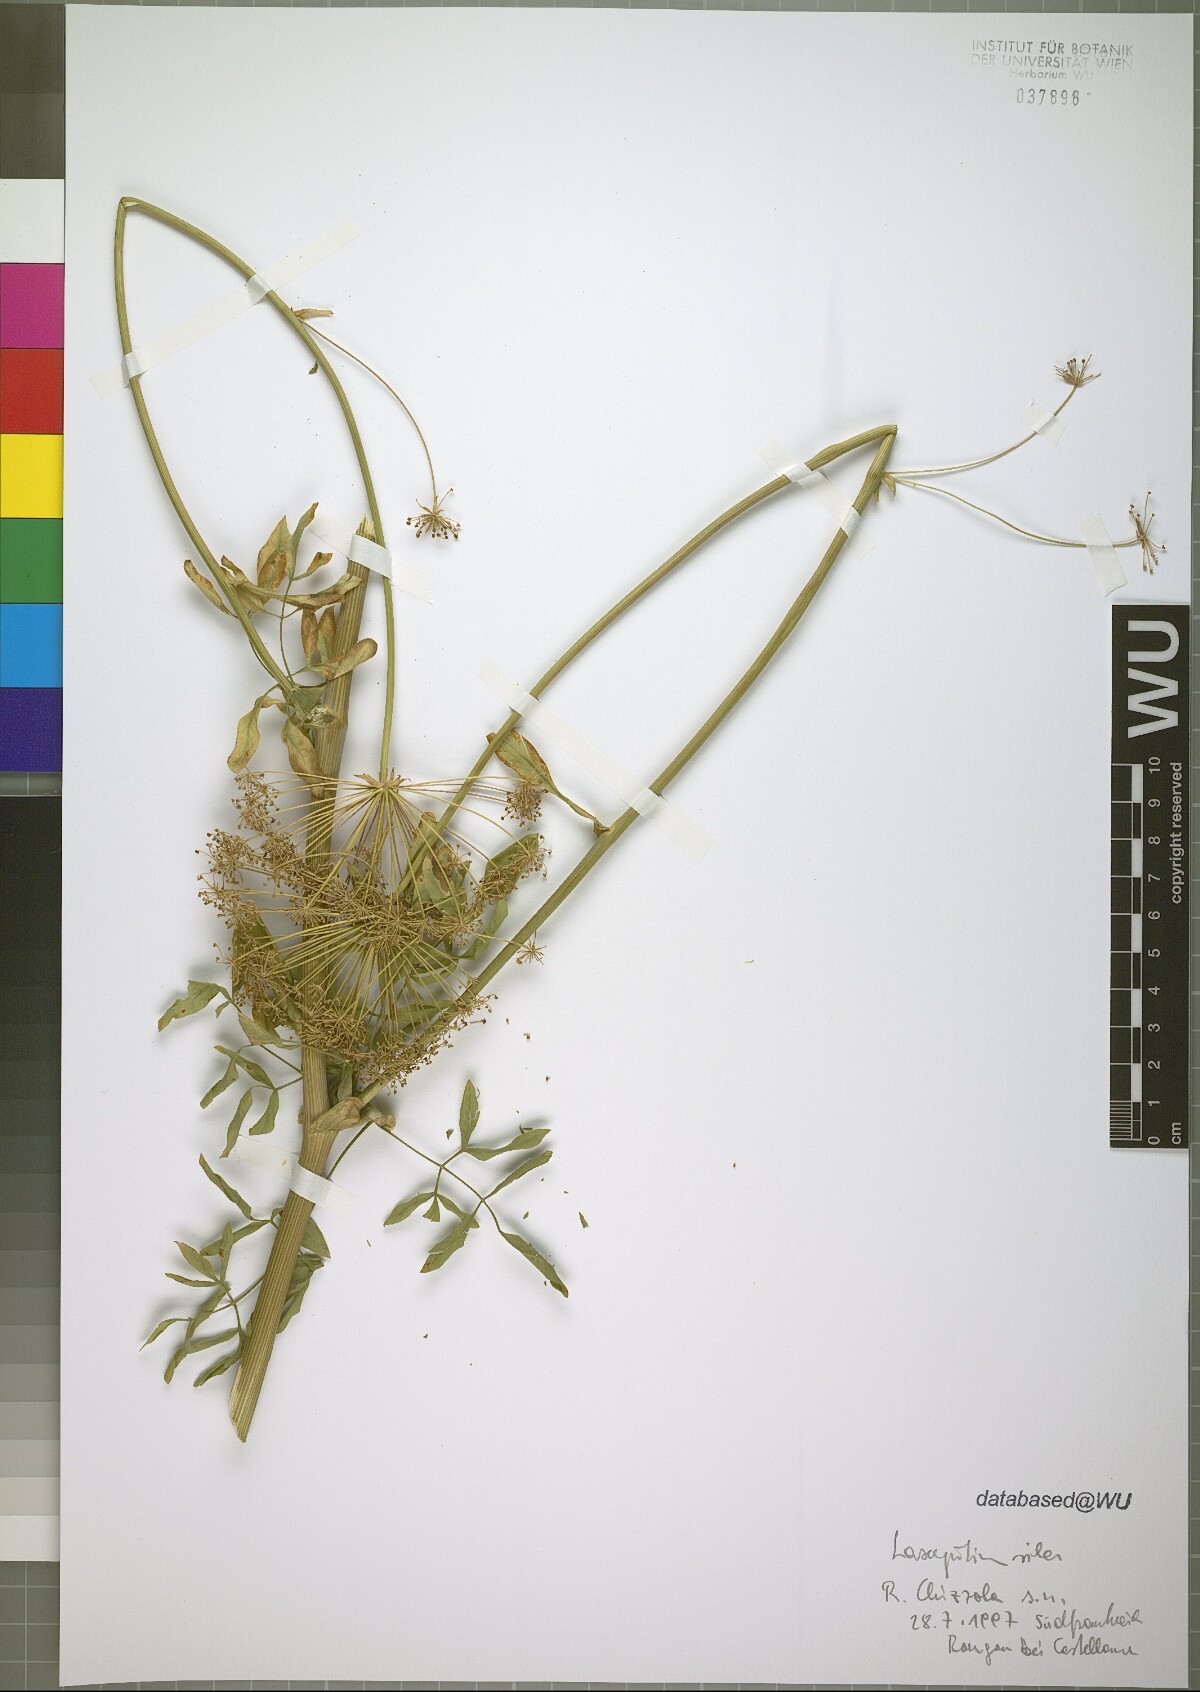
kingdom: Plantae
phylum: Tracheophyta
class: Magnoliopsida
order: Apiales
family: Apiaceae
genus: Siler
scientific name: Siler montanum
